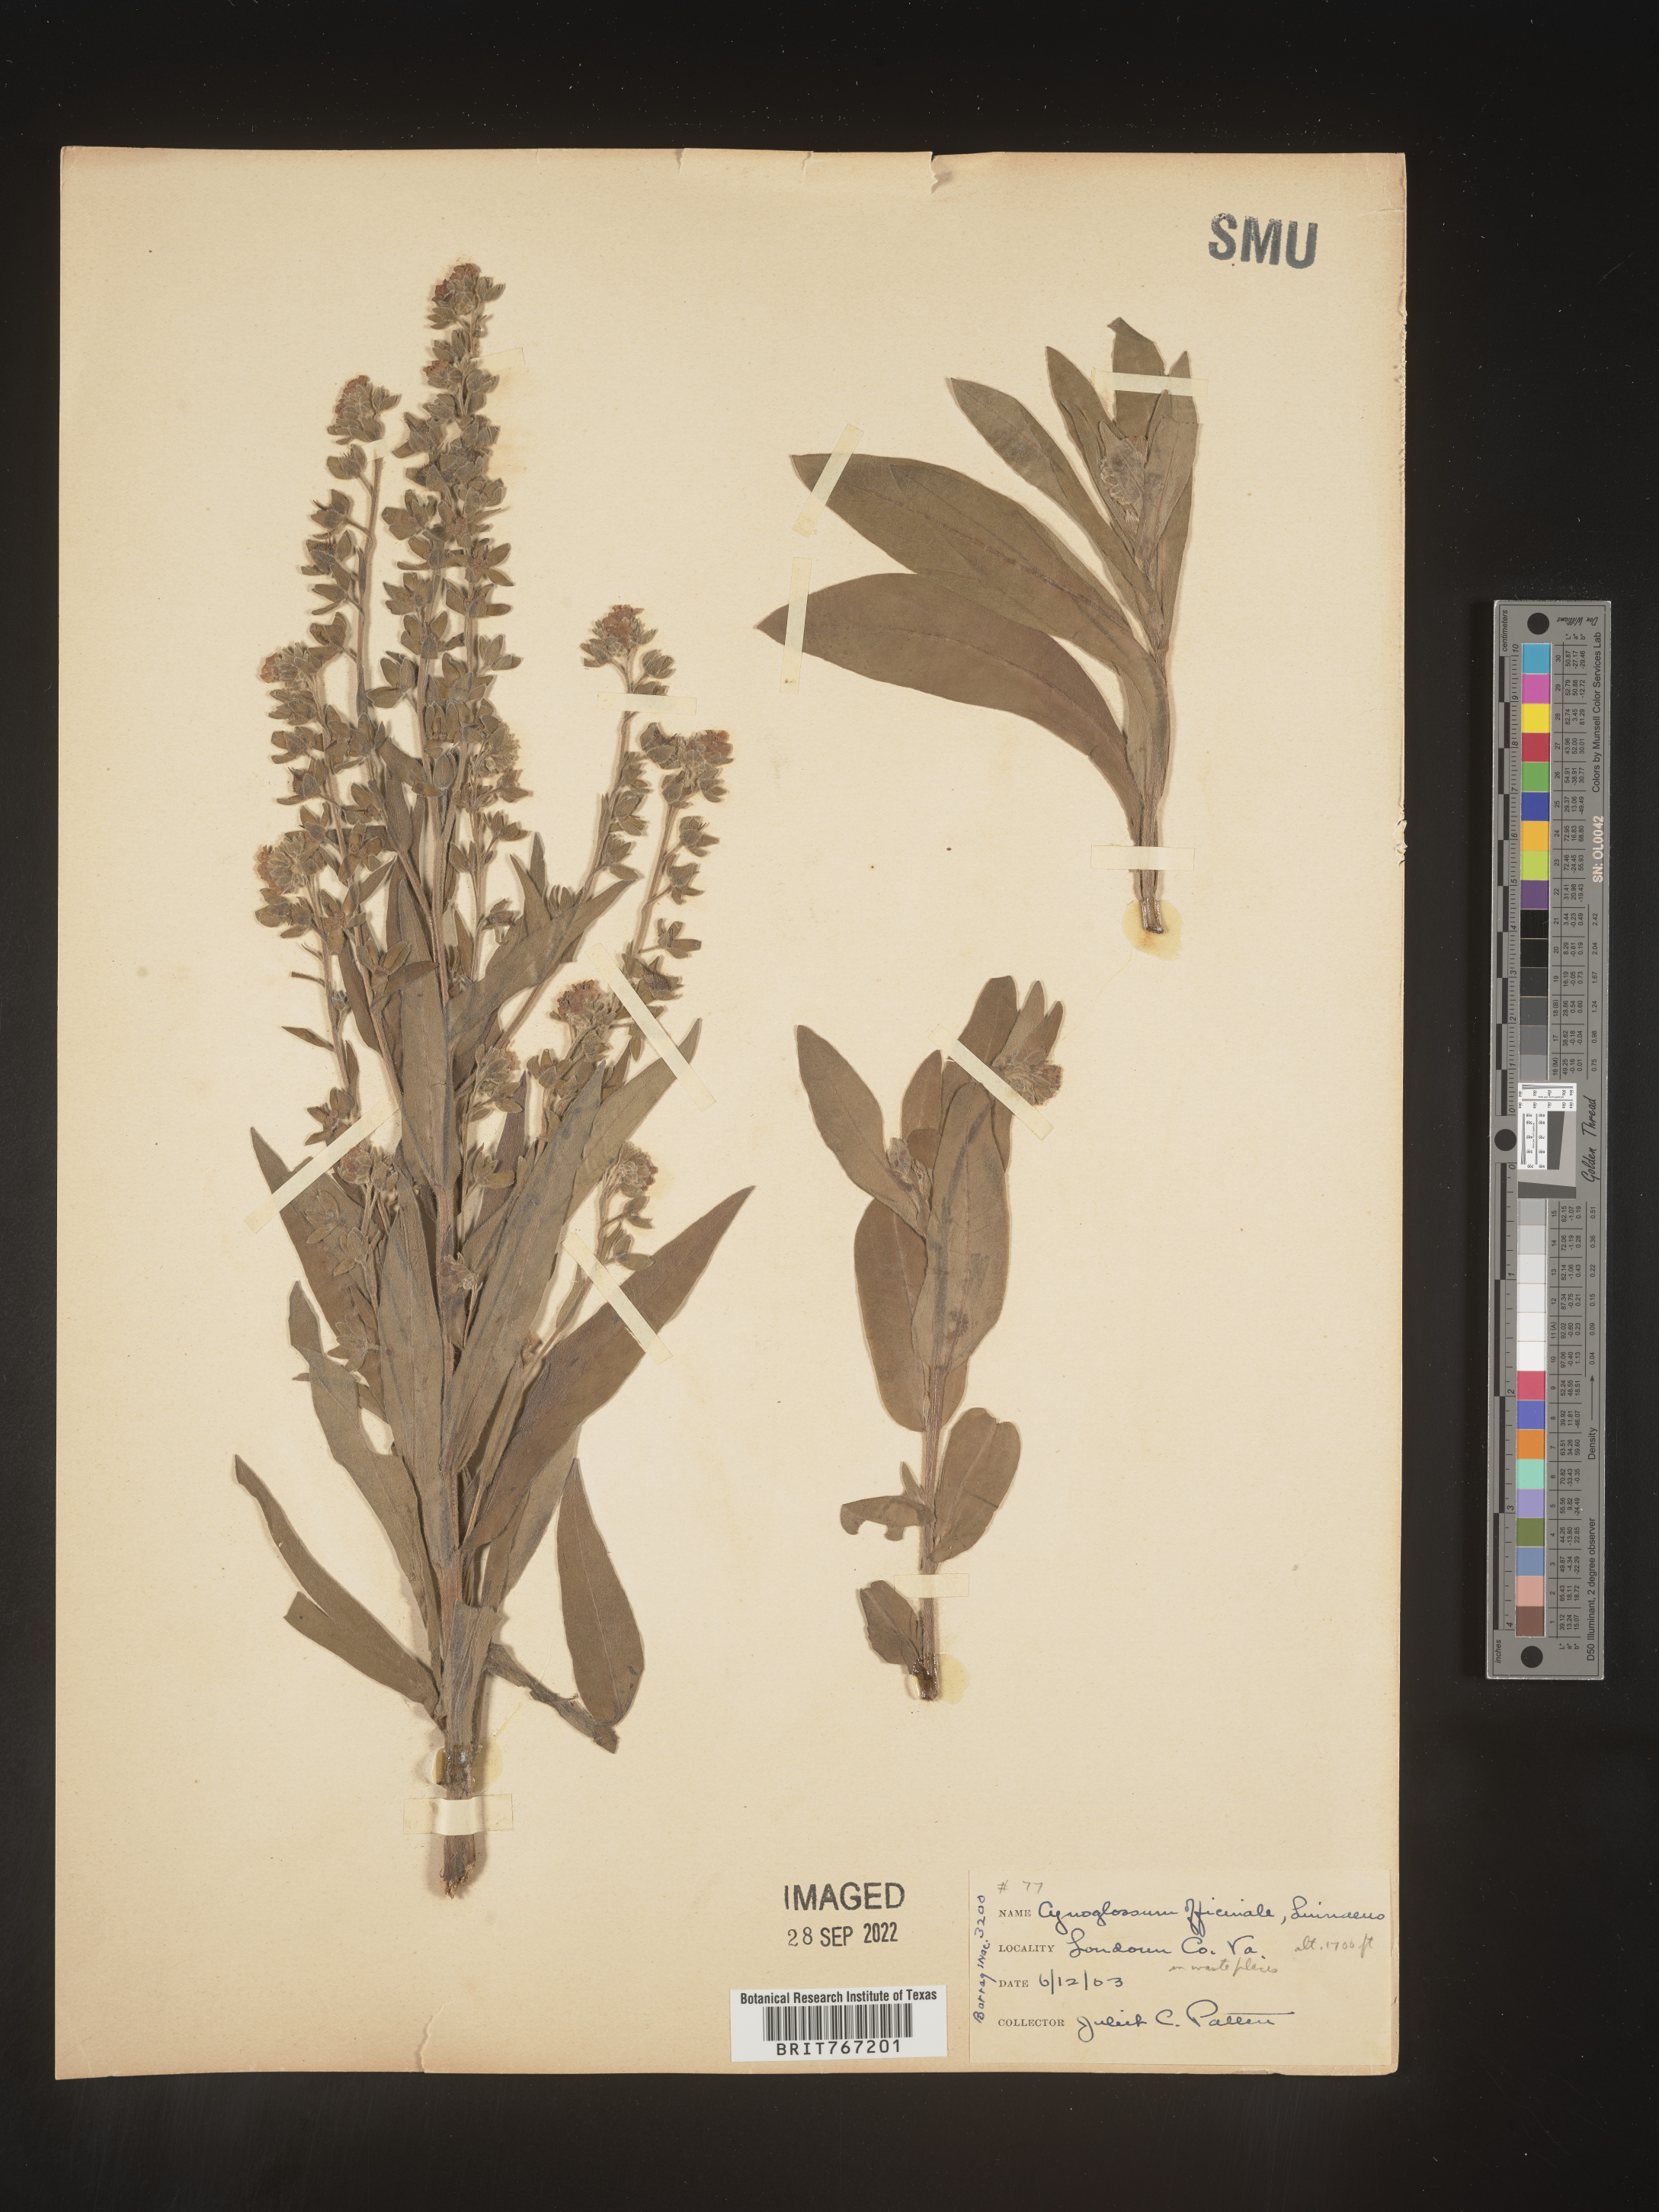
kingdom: Plantae
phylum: Tracheophyta
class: Magnoliopsida
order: Boraginales
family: Boraginaceae
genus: Cynoglossum
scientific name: Cynoglossum officinale
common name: Hound's-tongue
